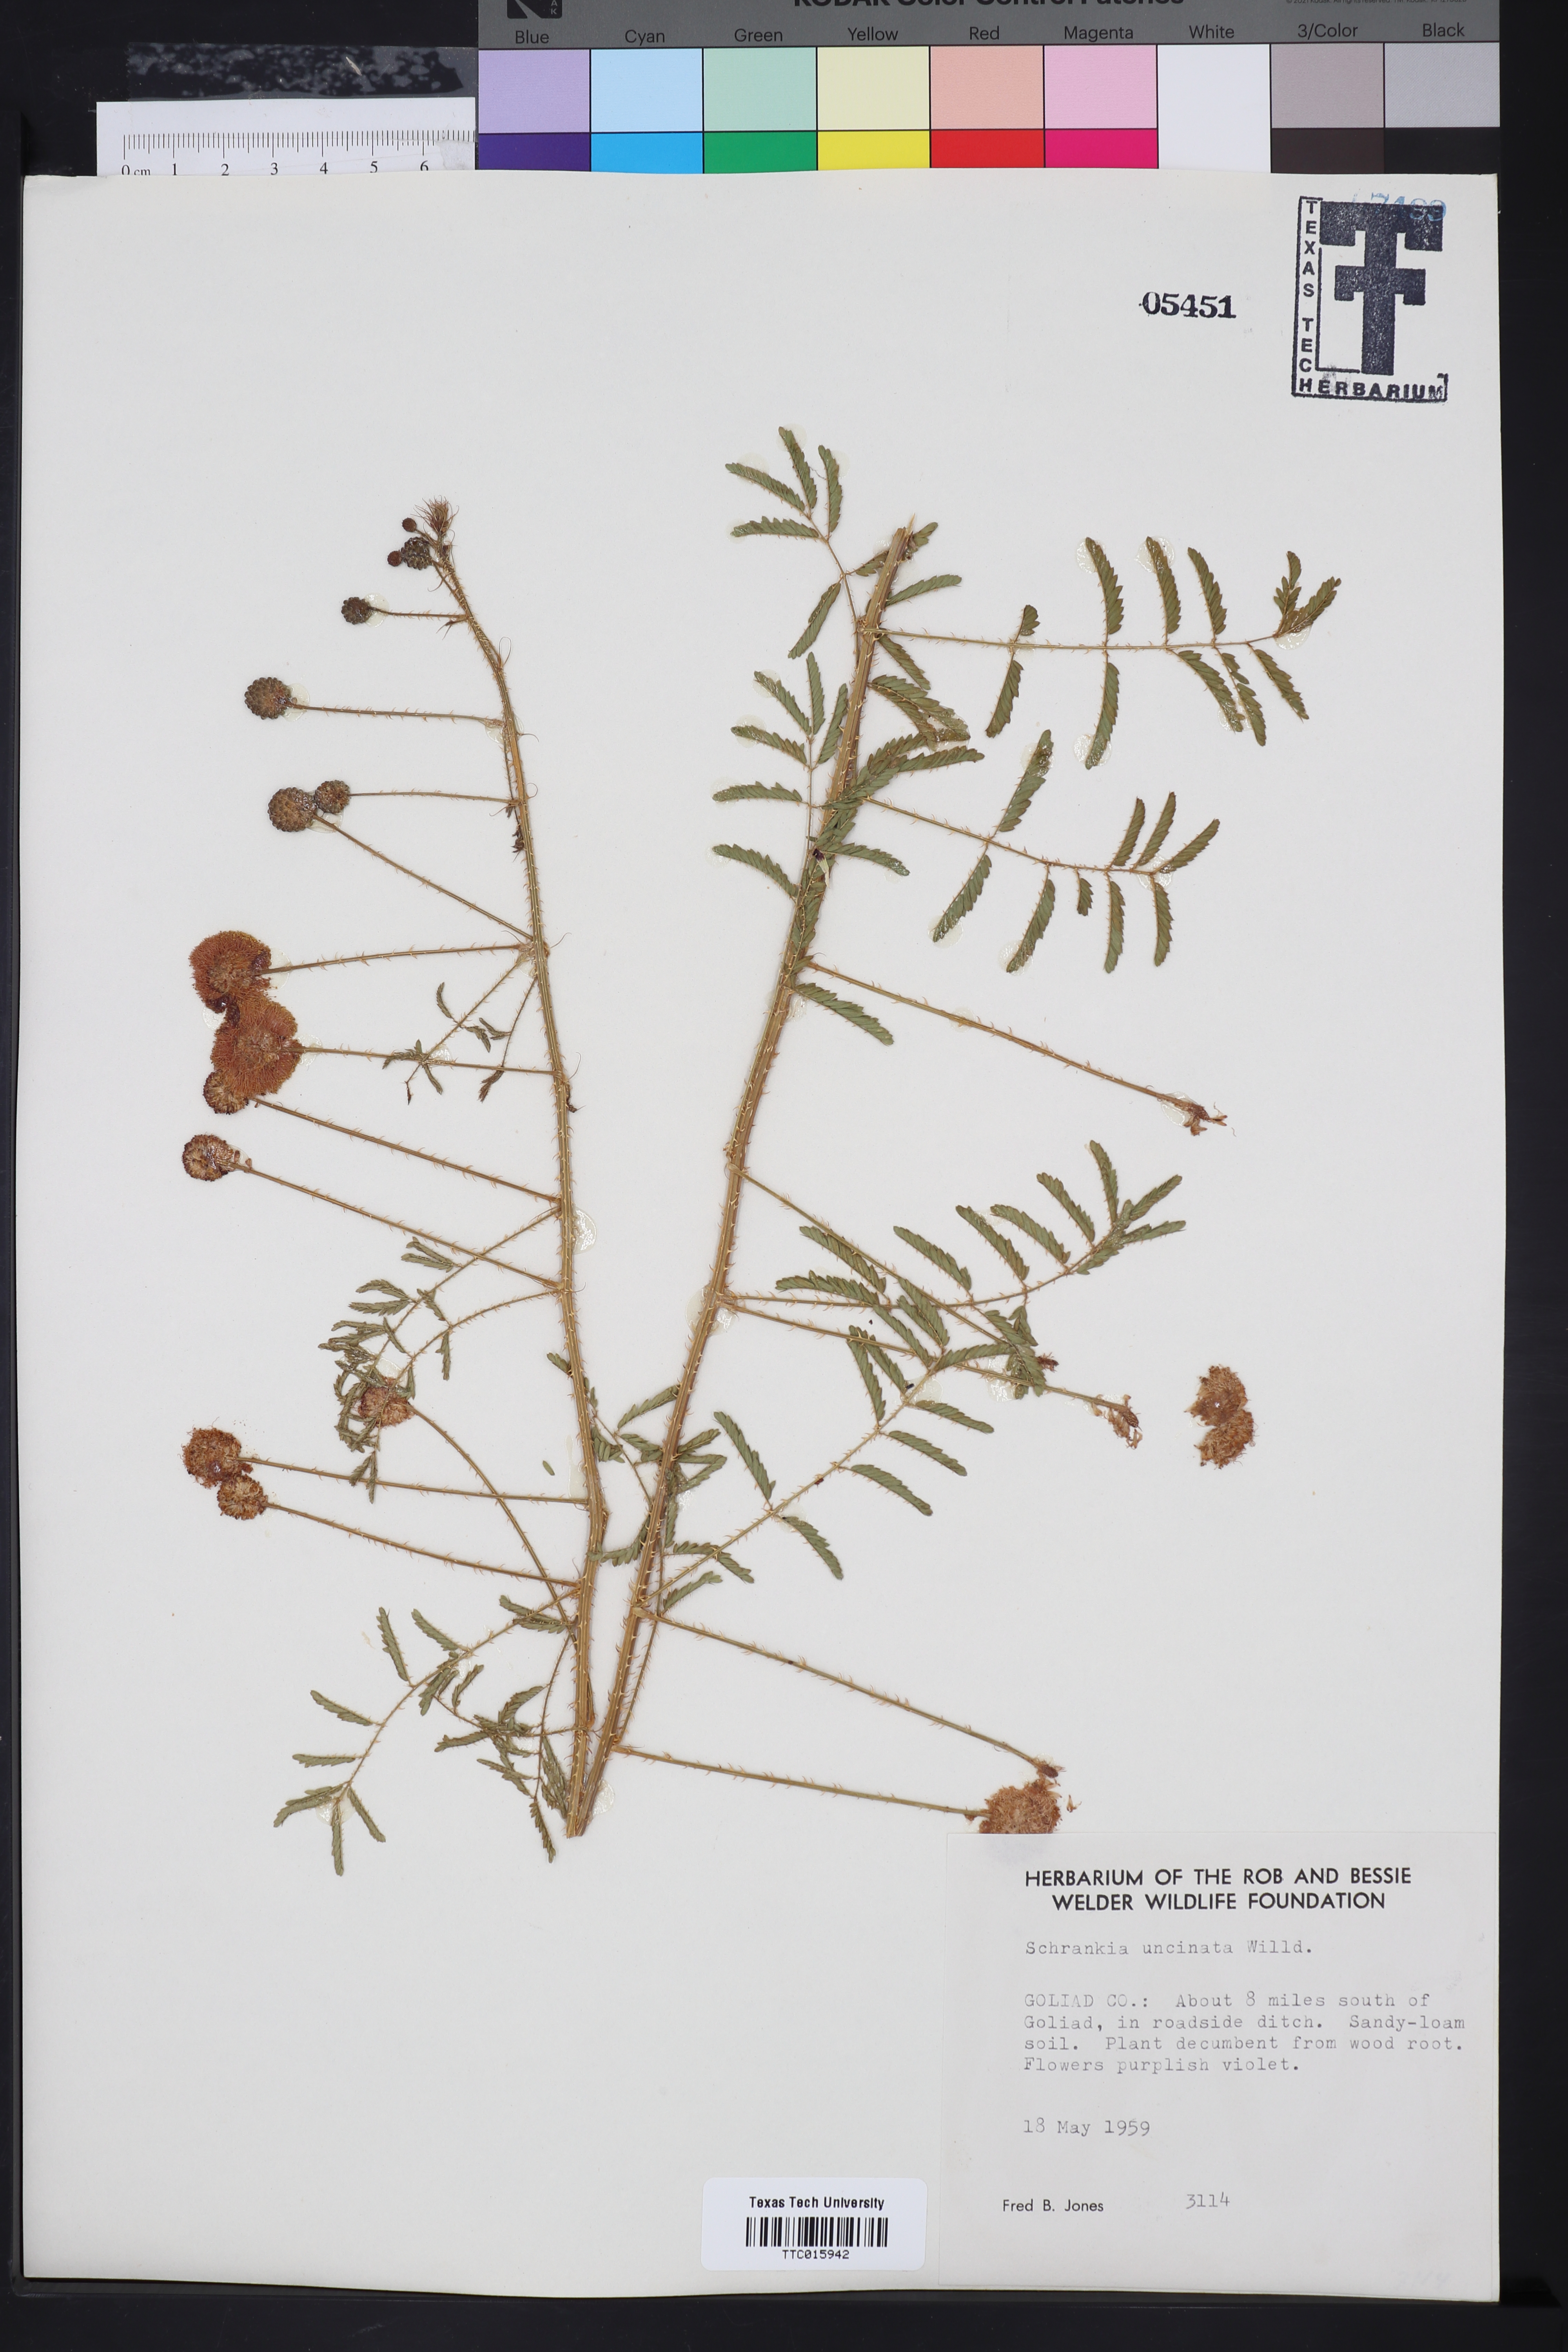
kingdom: Plantae
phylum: Tracheophyta
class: Magnoliopsida
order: Fabales
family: Fabaceae
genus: Mimosa
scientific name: Mimosa quadrivalvis
